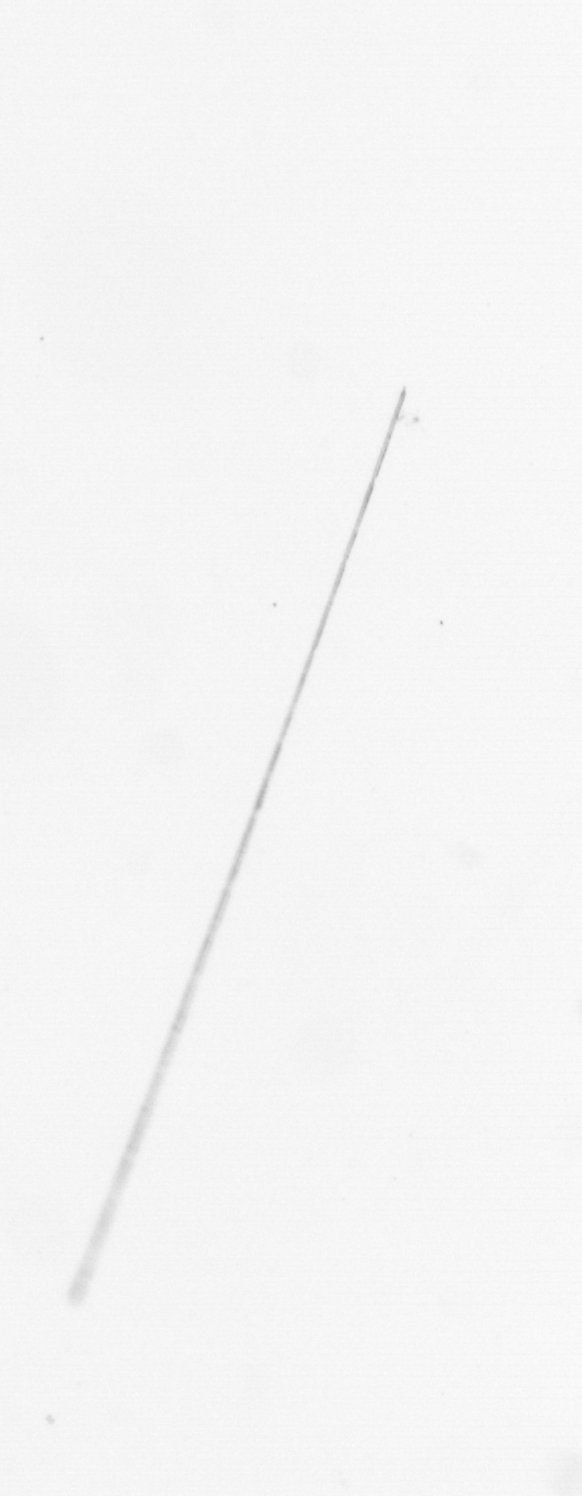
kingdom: Chromista
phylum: Ochrophyta
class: Bacillariophyceae
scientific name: Bacillariophyceae
